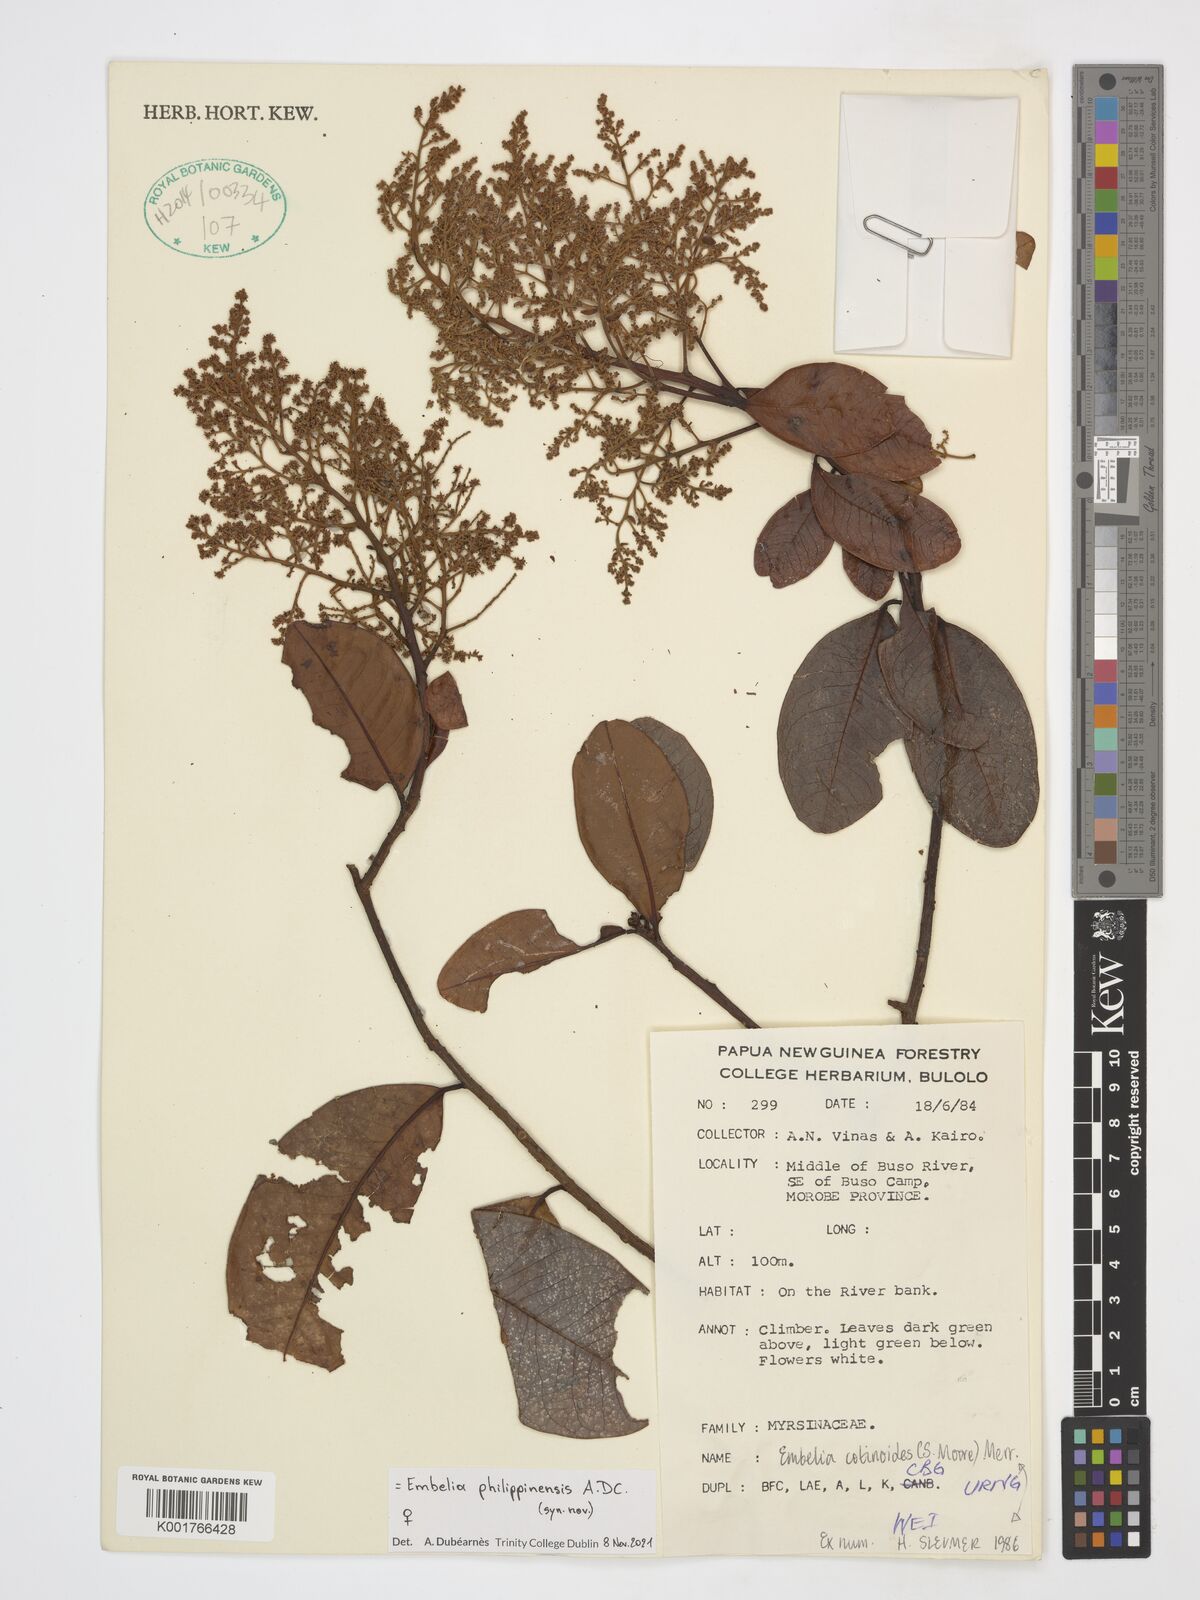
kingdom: Plantae
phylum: Tracheophyta
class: Magnoliopsida
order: Ericales
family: Primulaceae
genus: Embelia
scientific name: Embelia philippinensis
